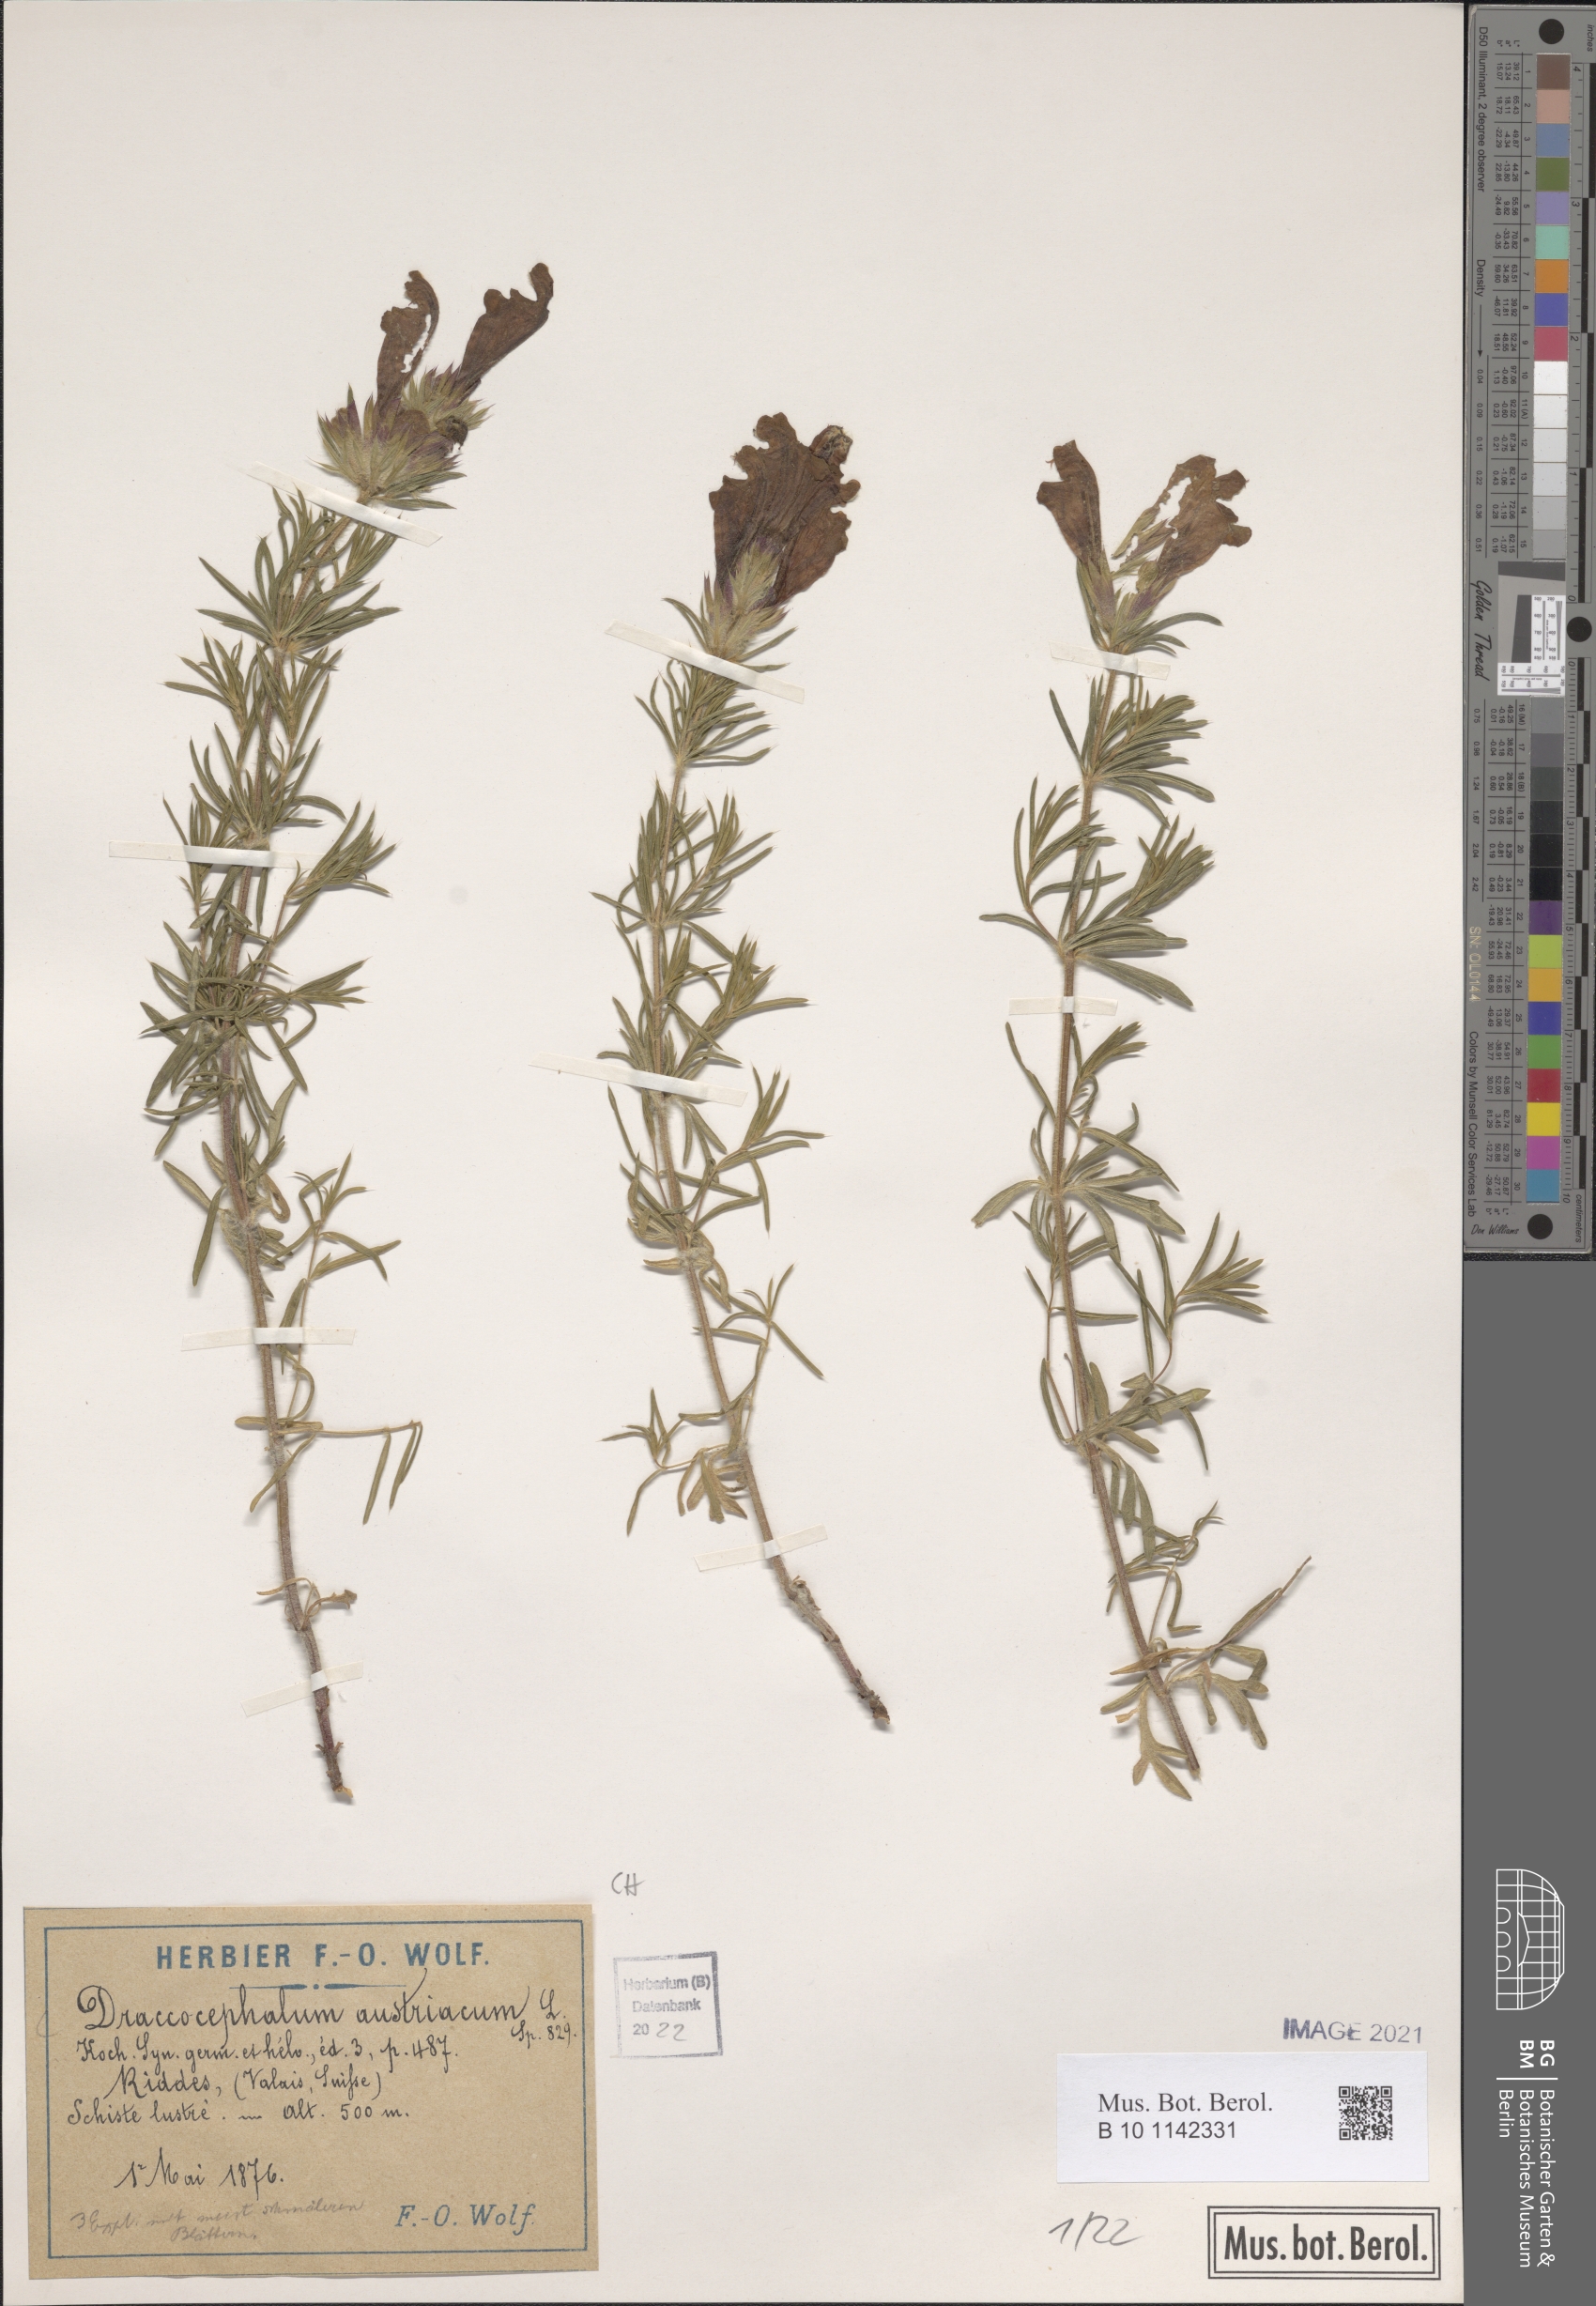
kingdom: Plantae
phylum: Tracheophyta
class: Magnoliopsida
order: Lamiales
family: Lamiaceae
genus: Dracocephalum
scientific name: Dracocephalum austriacum
